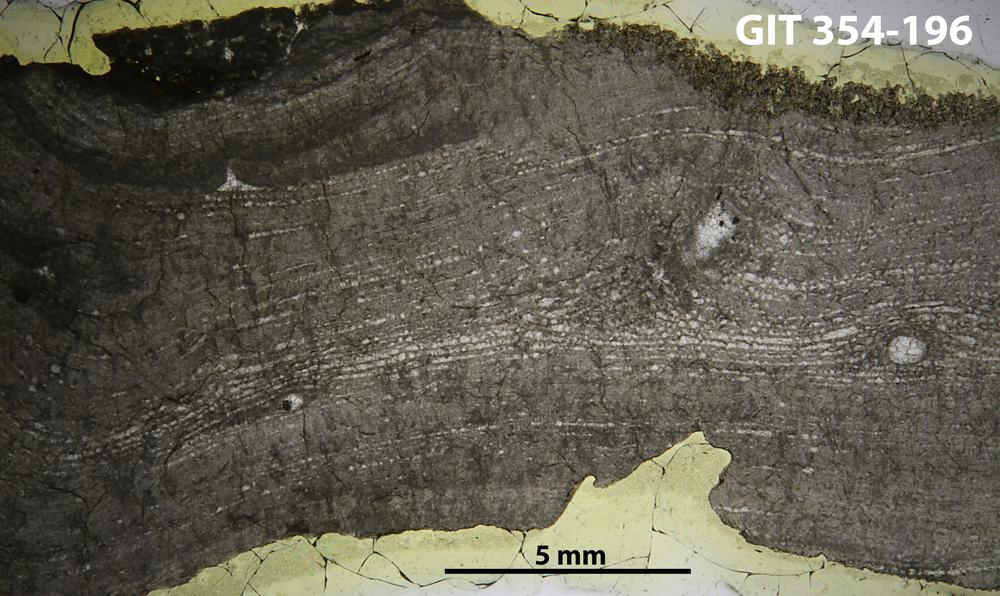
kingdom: Animalia
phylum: Porifera
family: Clathrodictyidae
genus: Clathrodictyon
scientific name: Clathrodictyon boreale
